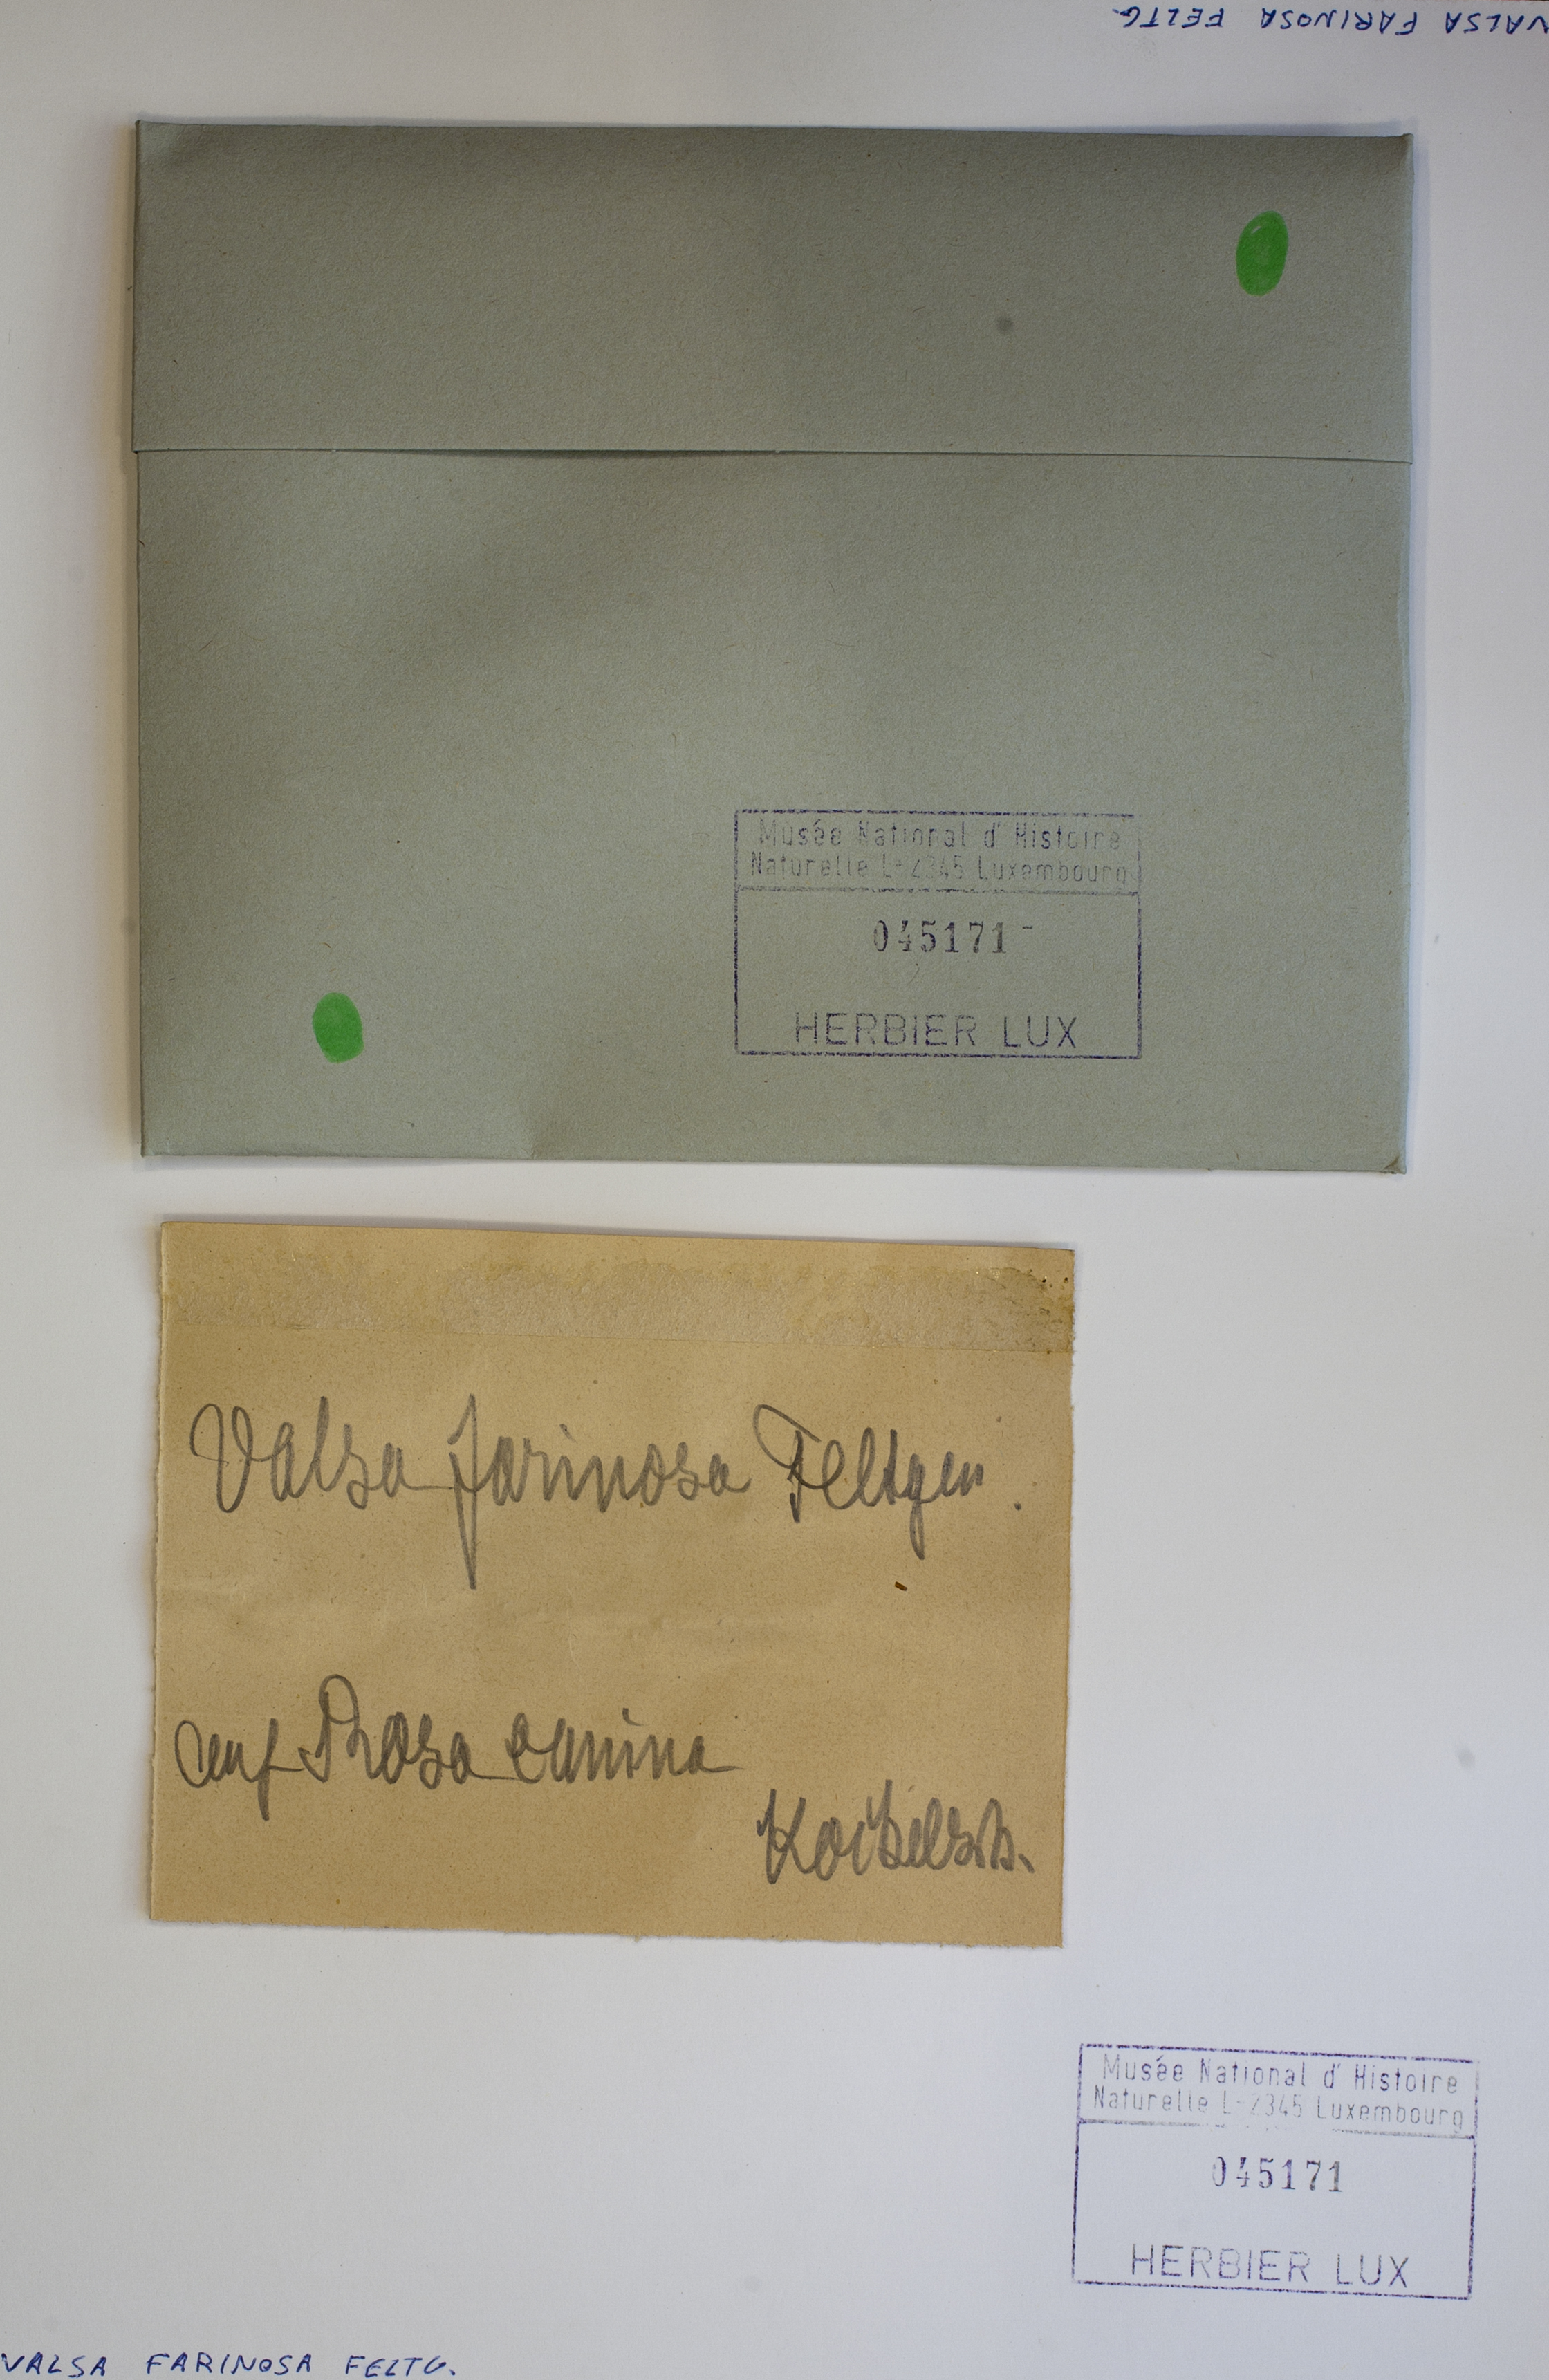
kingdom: Fungi
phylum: Ascomycota
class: Sordariomycetes
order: Diaporthales
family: Harknessiaceae
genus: Harknessia
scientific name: Harknessia farinosa
